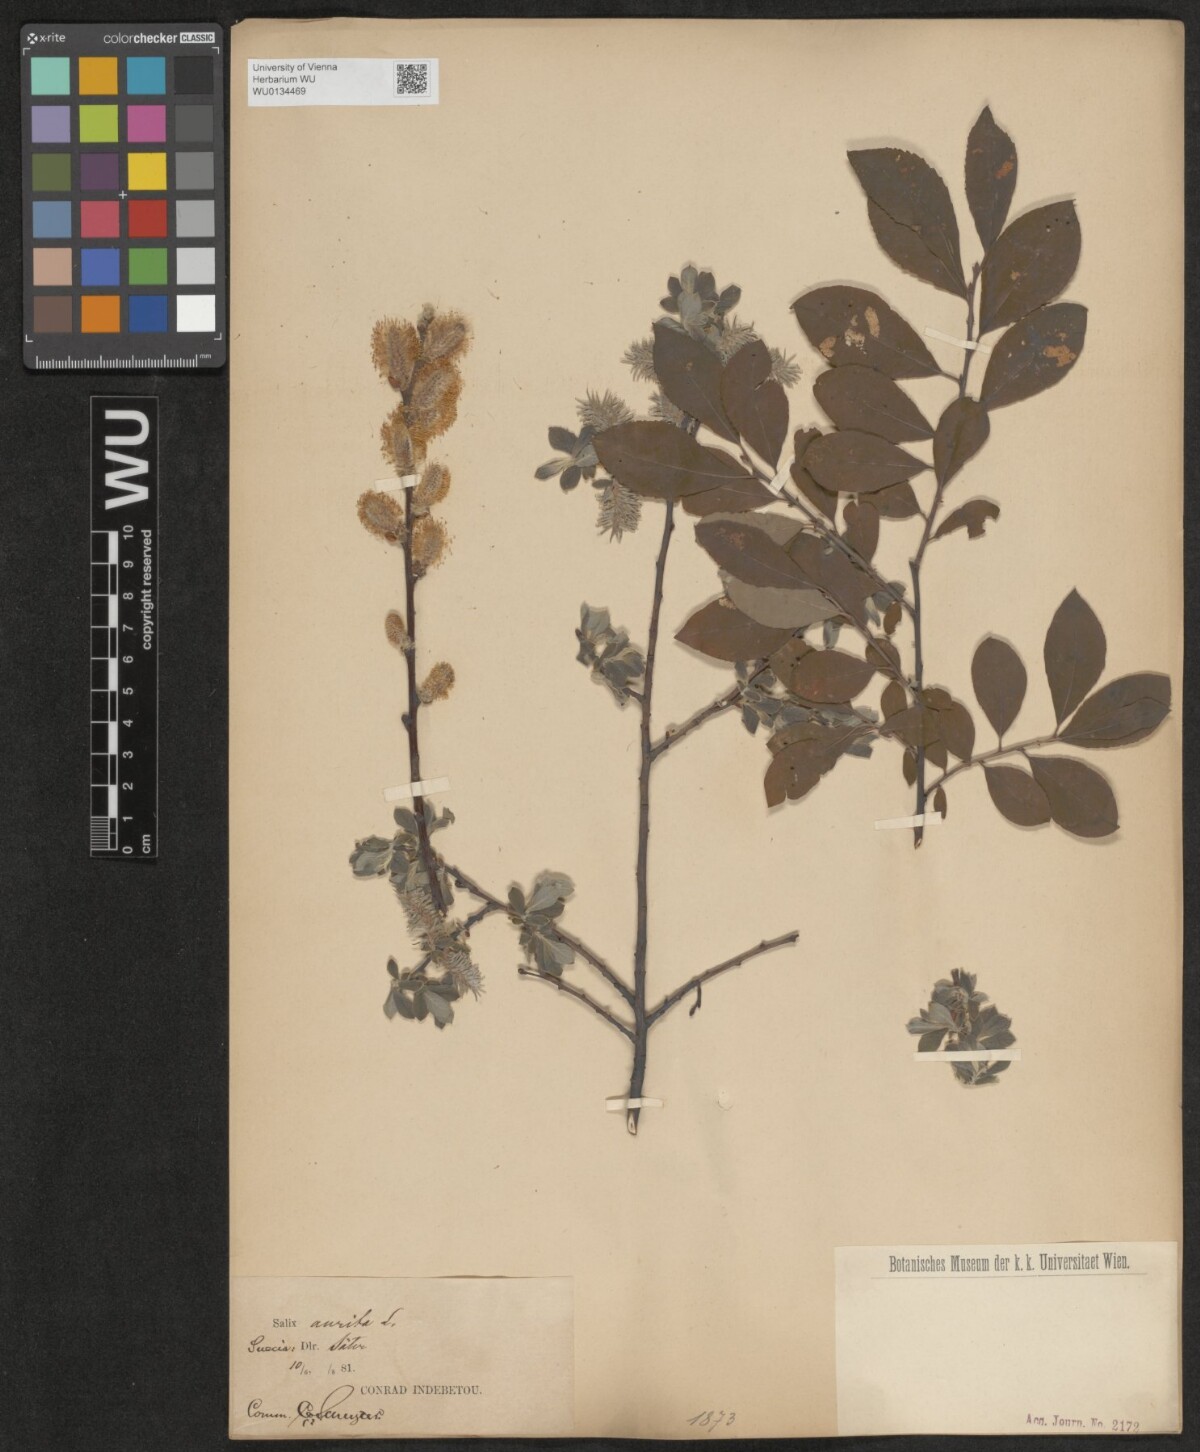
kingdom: Plantae
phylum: Tracheophyta
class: Magnoliopsida
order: Malpighiales
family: Salicaceae
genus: Salix
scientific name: Salix aurita
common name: Eared willow
